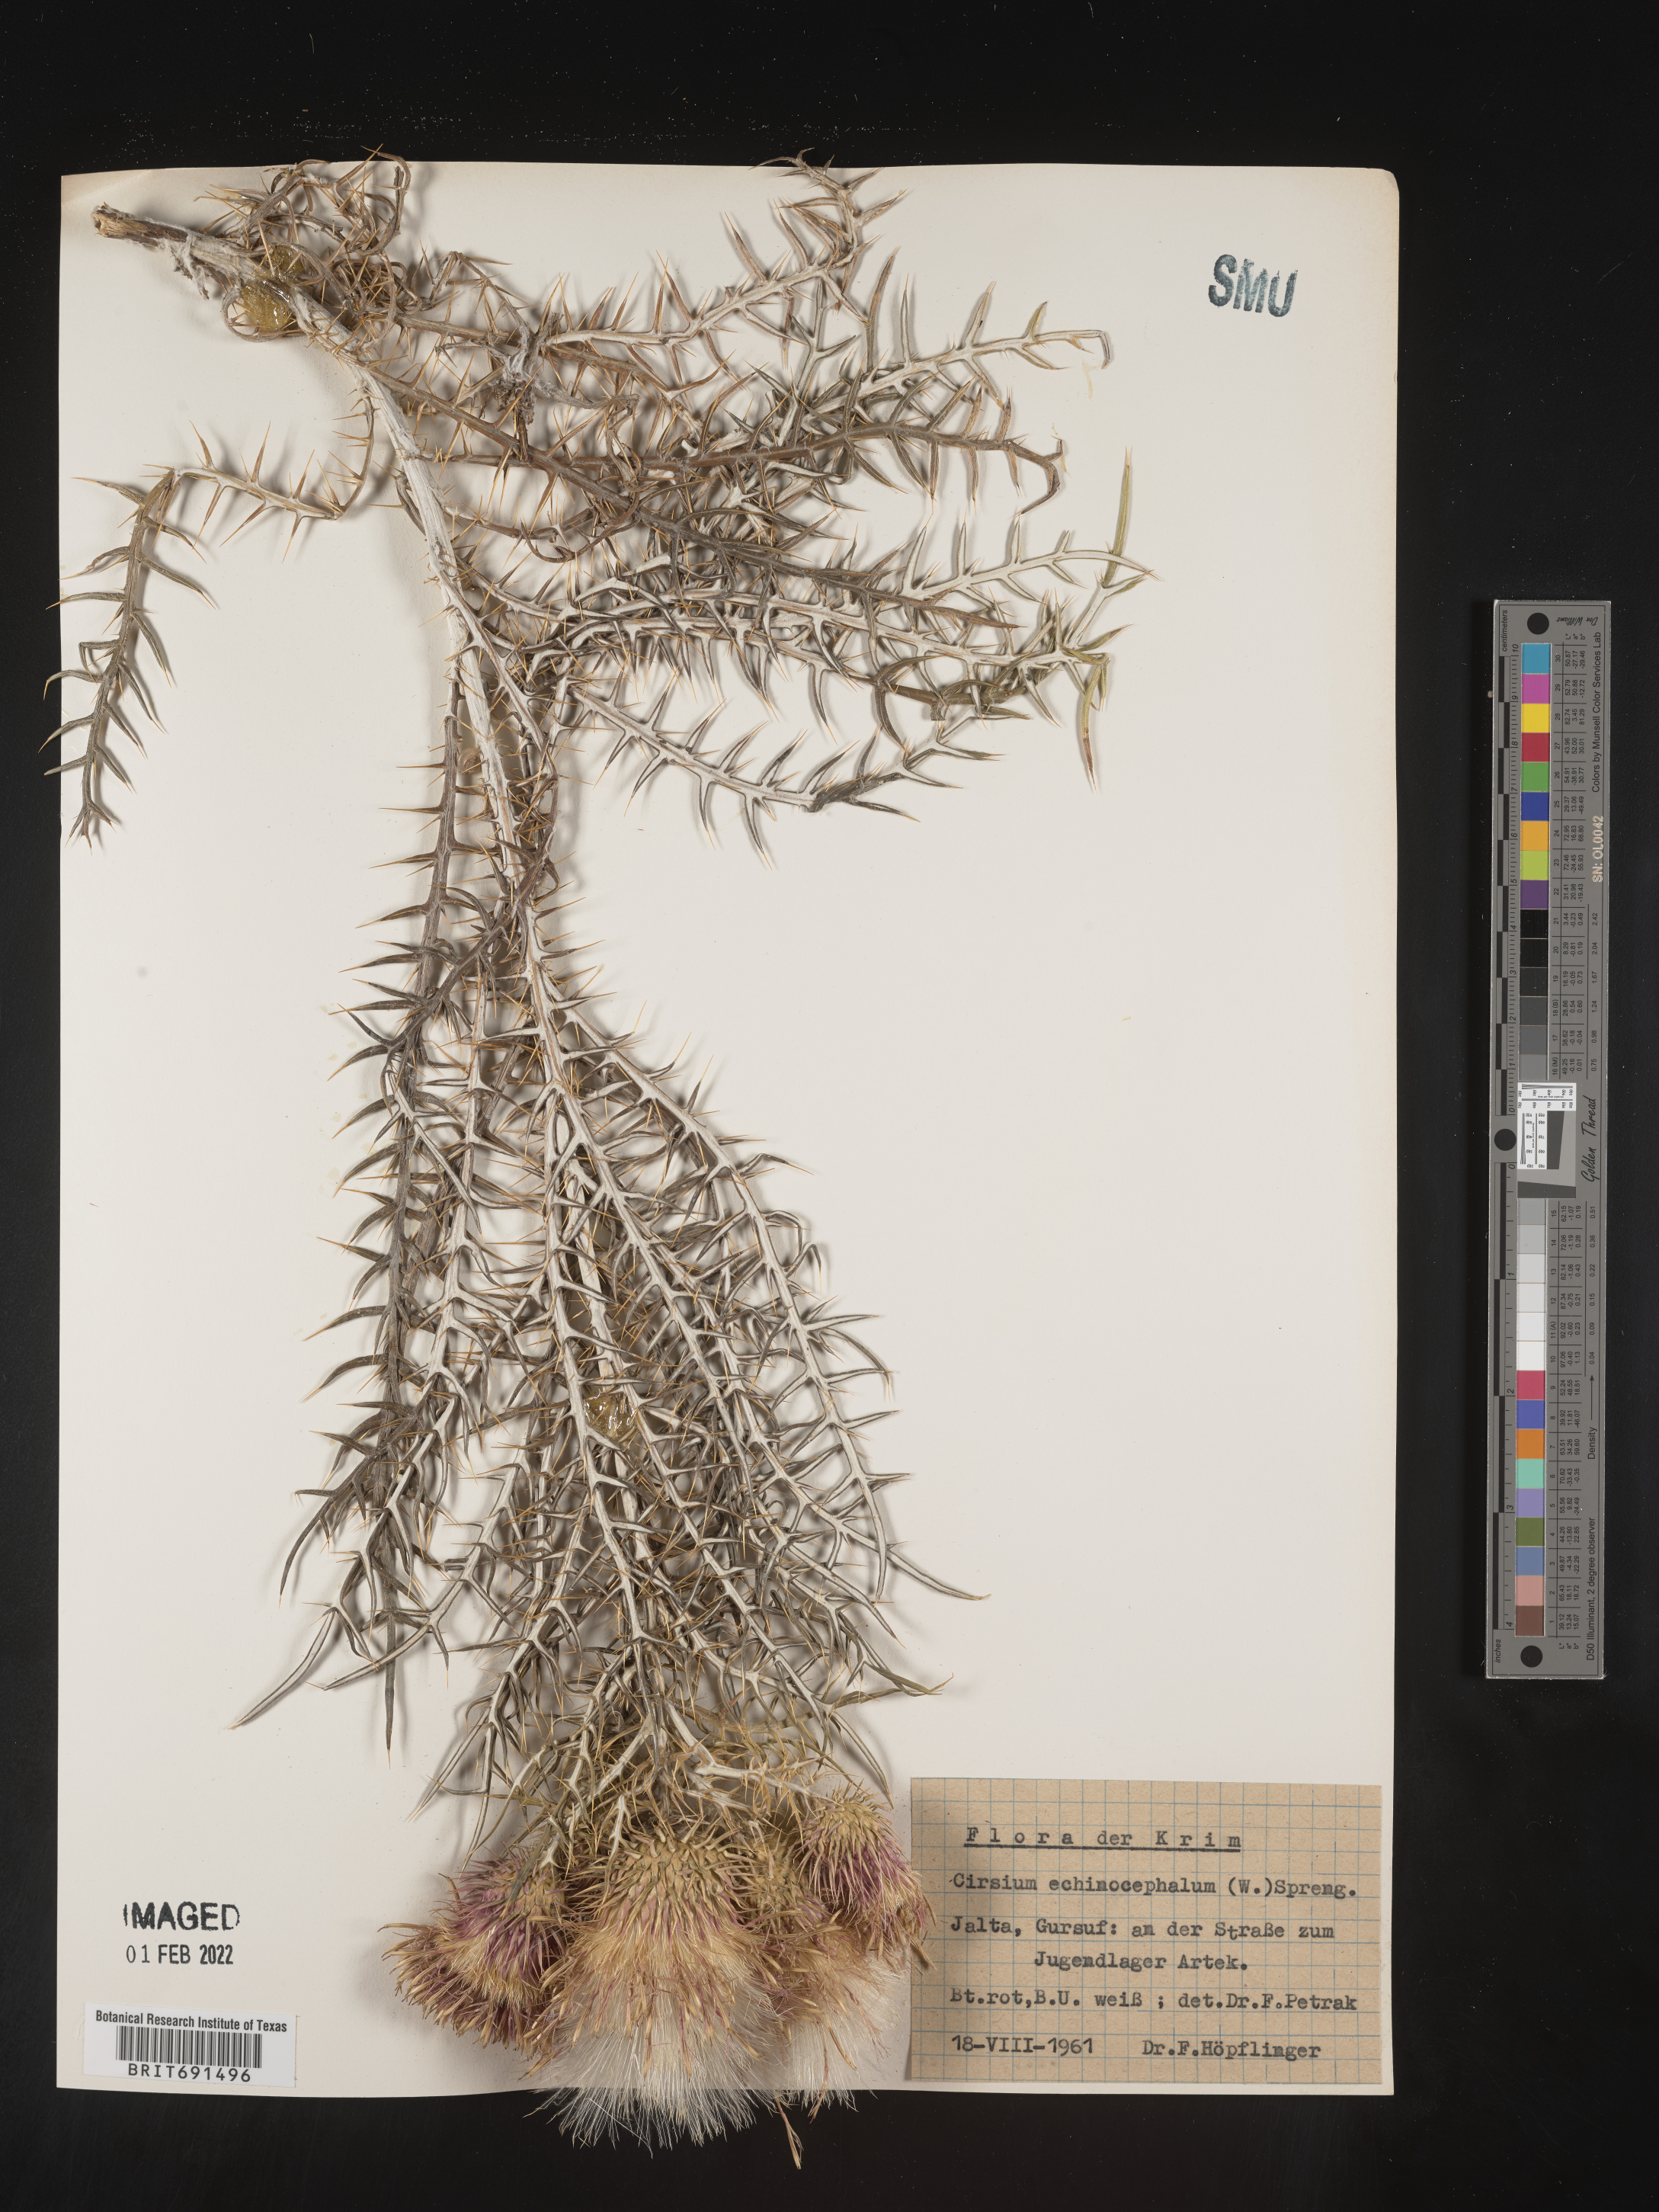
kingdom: Plantae
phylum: Tracheophyta
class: Magnoliopsida
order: Asterales
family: Asteraceae
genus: Cirsium
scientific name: Cirsium
